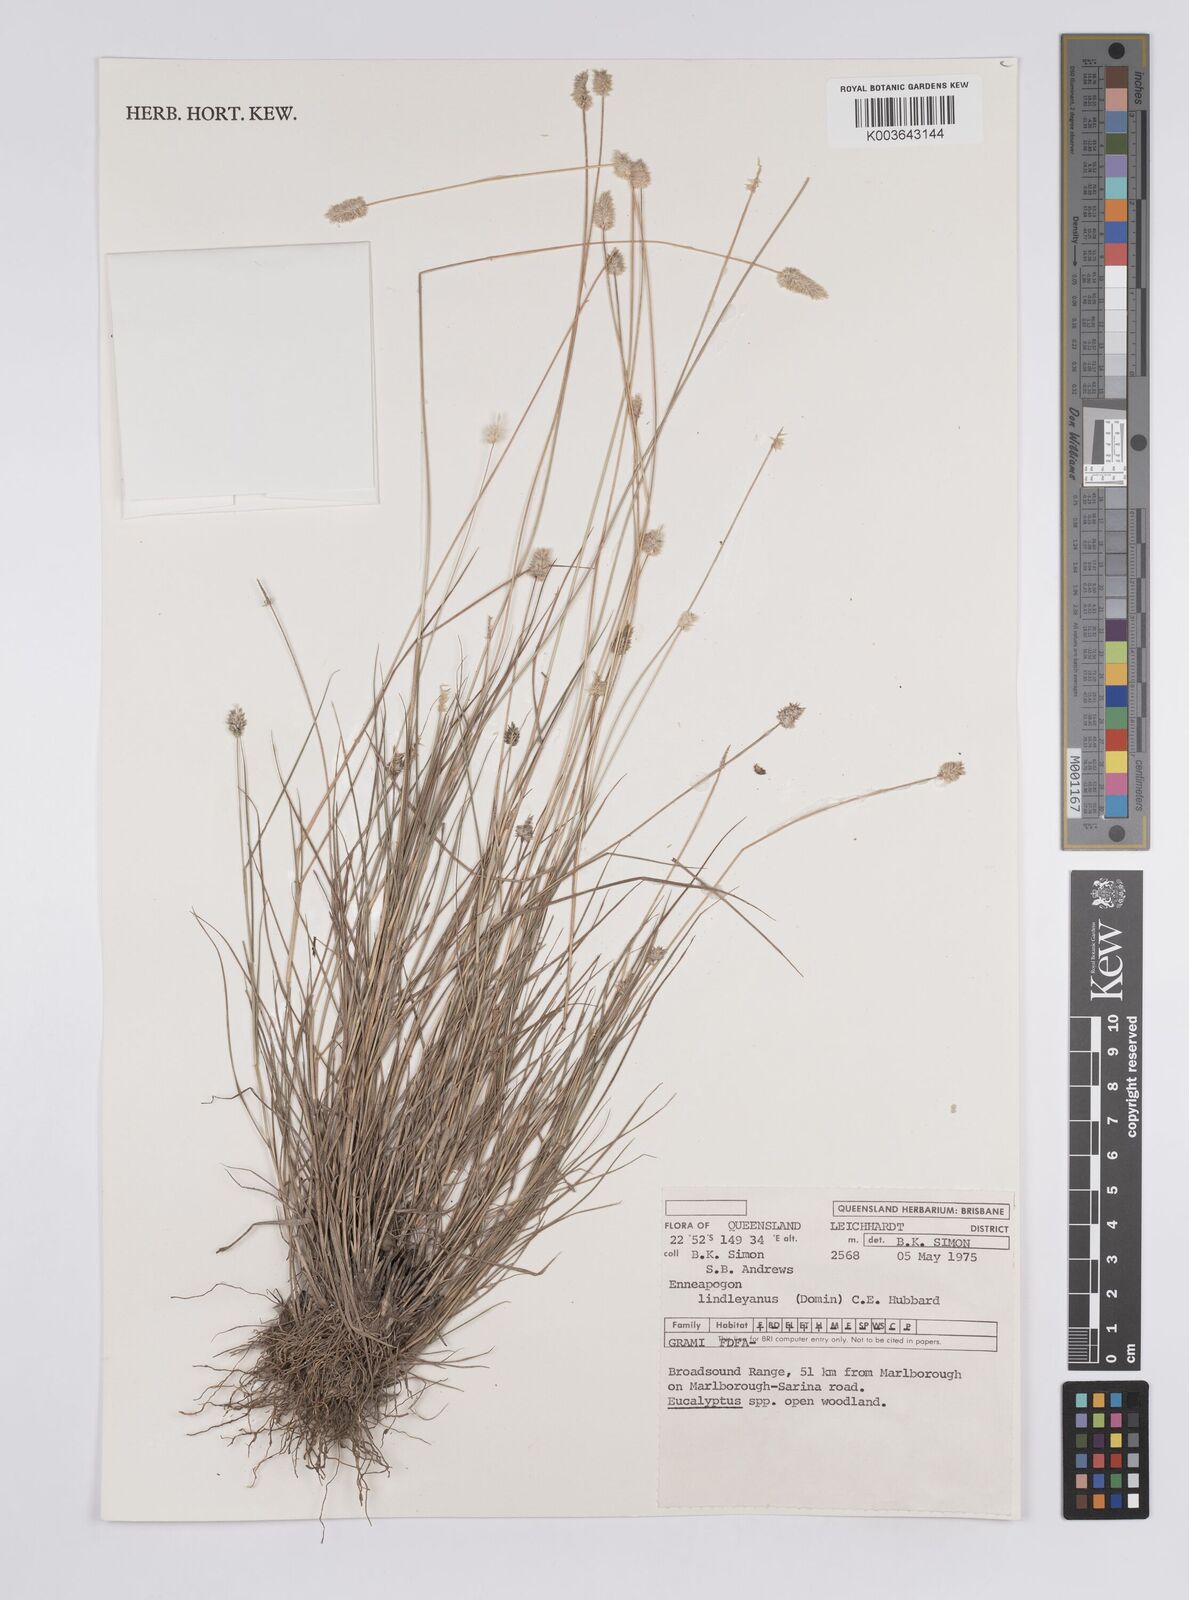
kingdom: Plantae
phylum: Tracheophyta
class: Liliopsida
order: Poales
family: Poaceae
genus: Enneapogon
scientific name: Enneapogon lindleyanus
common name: Conetop nineawn
